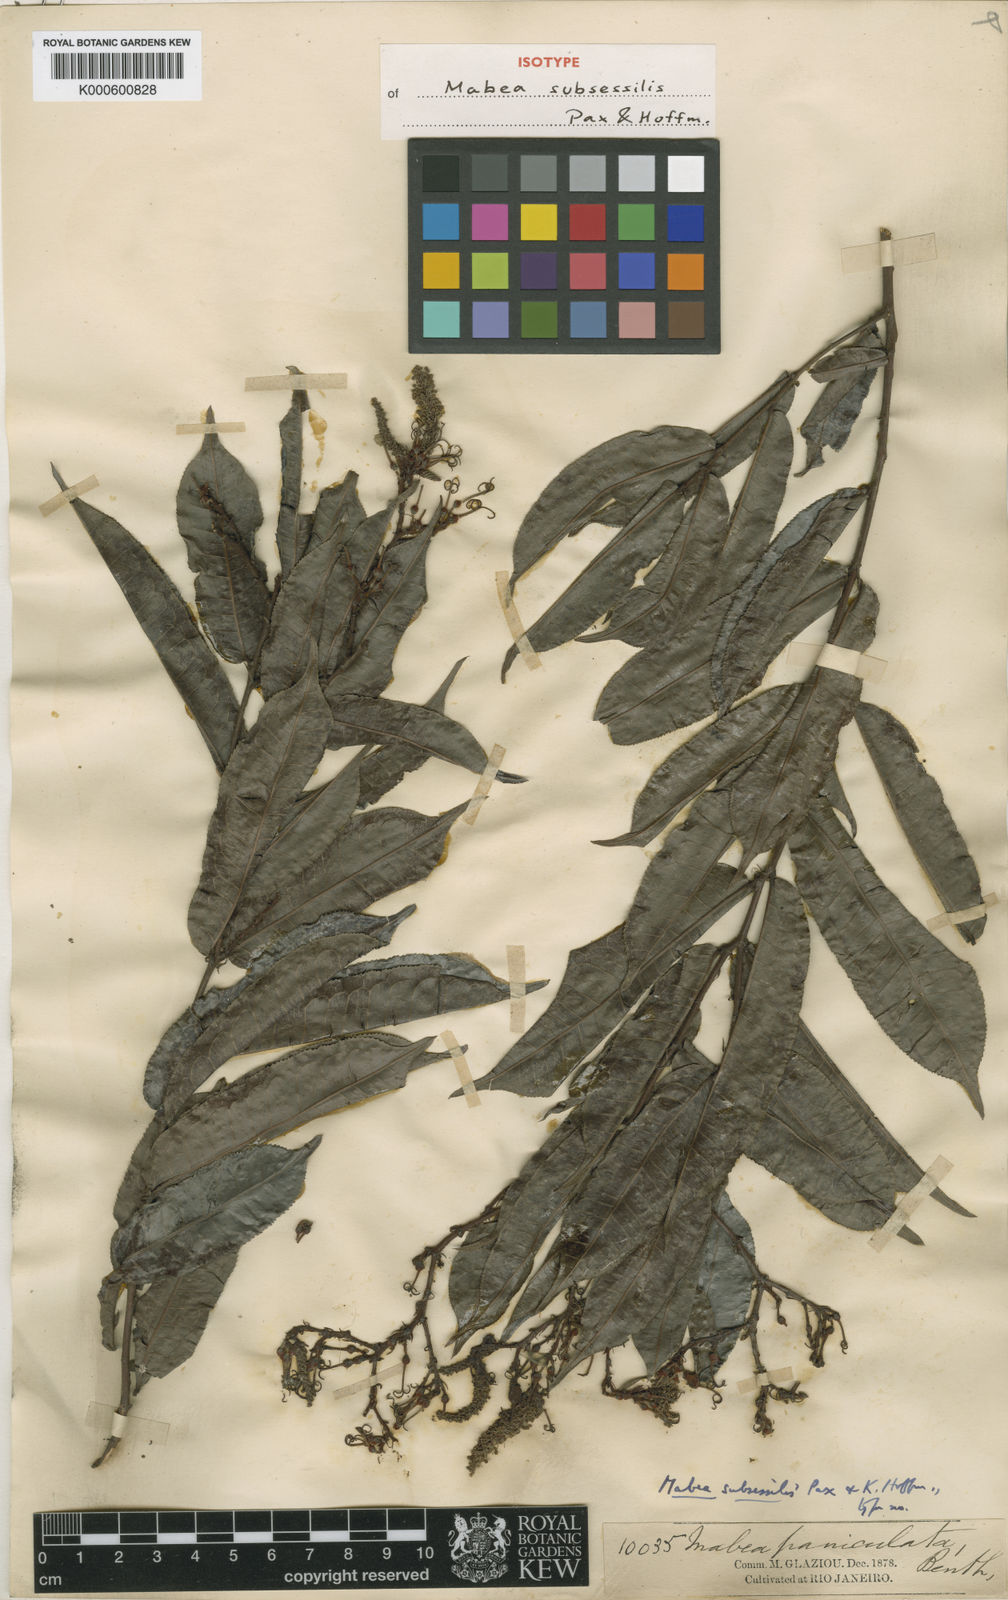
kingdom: Plantae
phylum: Tracheophyta
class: Magnoliopsida
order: Malpighiales
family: Euphorbiaceae
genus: Mabea
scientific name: Mabea subsessilis
